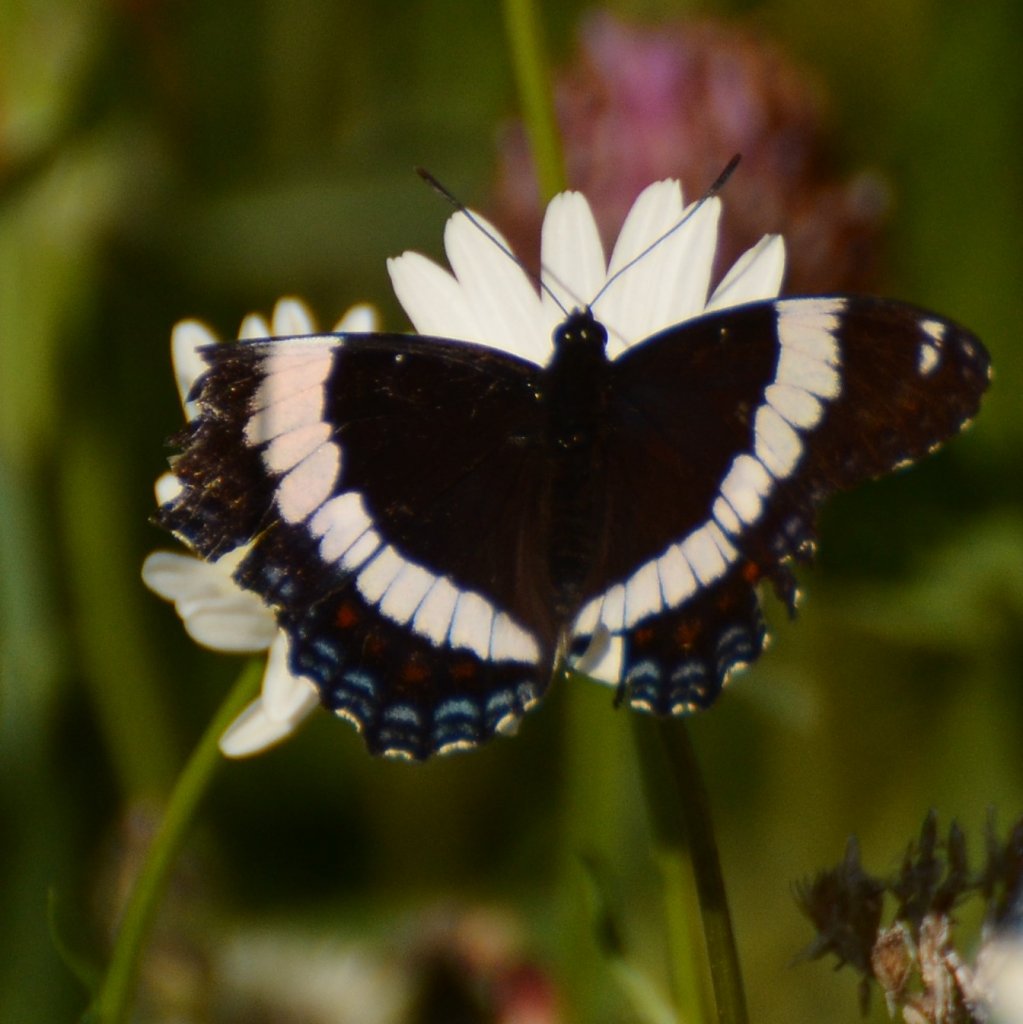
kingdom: Animalia
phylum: Arthropoda
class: Insecta
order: Lepidoptera
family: Nymphalidae
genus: Limenitis
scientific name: Limenitis arthemis
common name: Red-spotted Admiral
